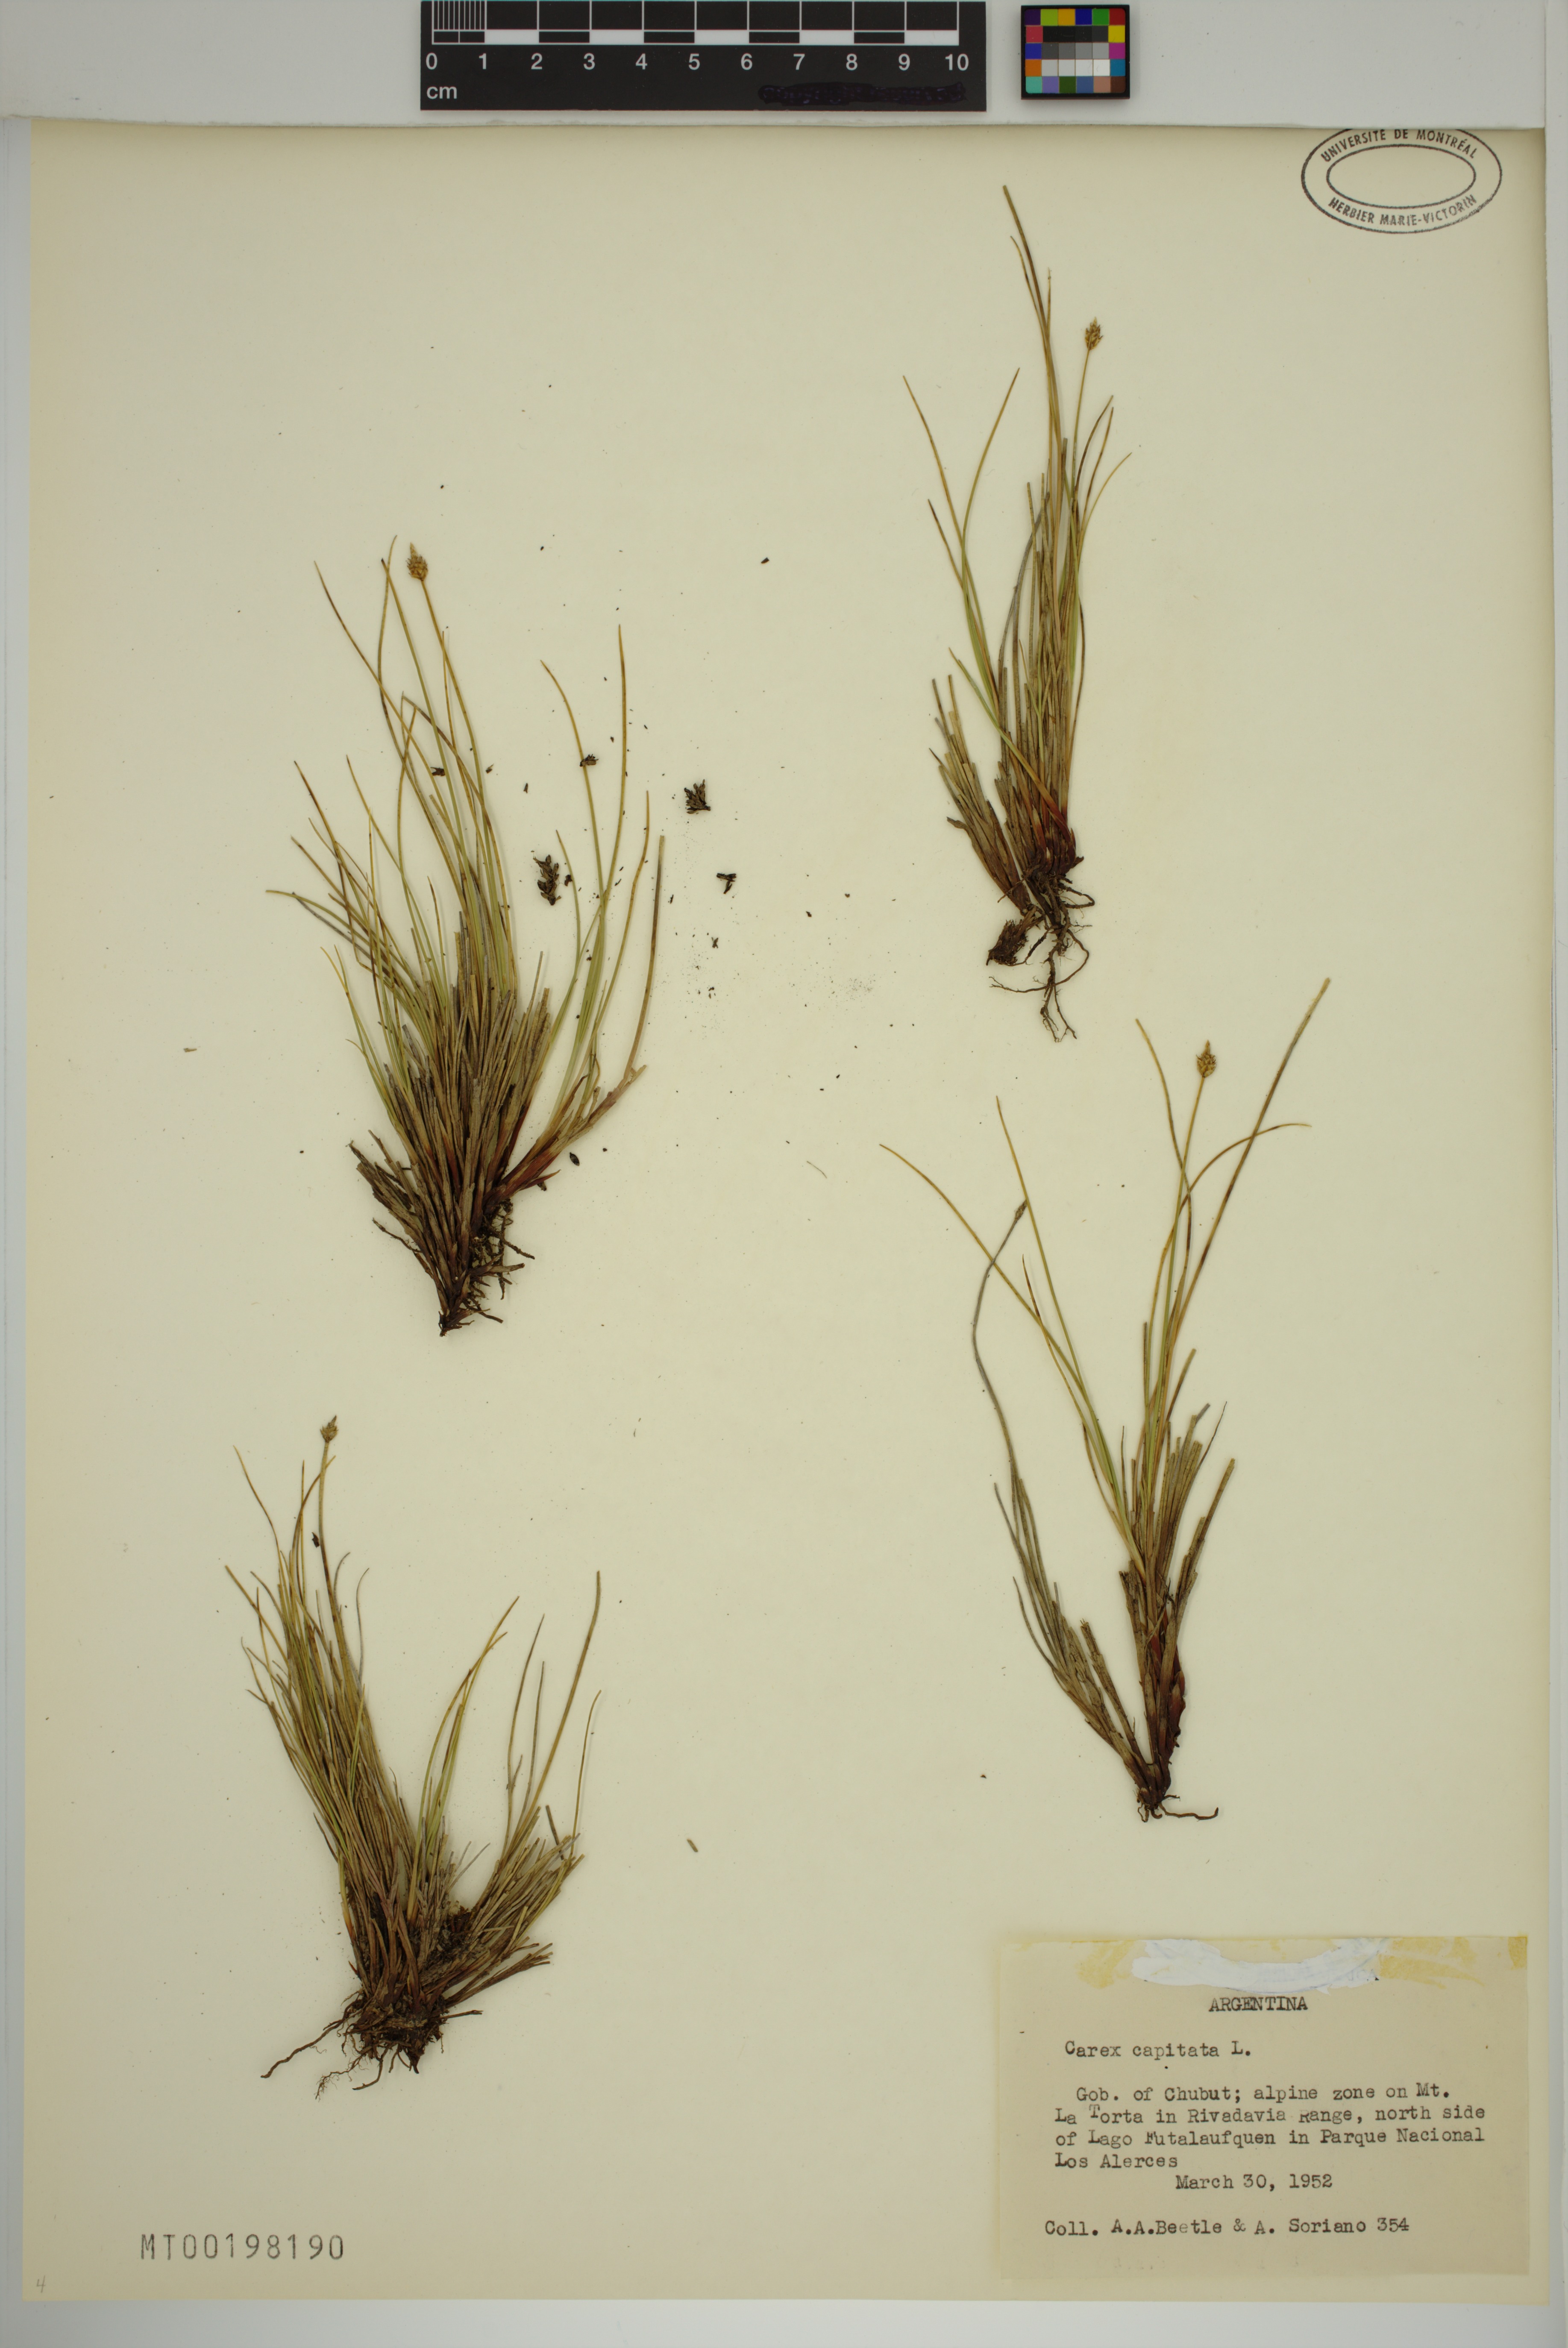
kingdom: Plantae
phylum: Tracheophyta
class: Liliopsida
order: Poales
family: Cyperaceae
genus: Carex
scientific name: Carex capitata
